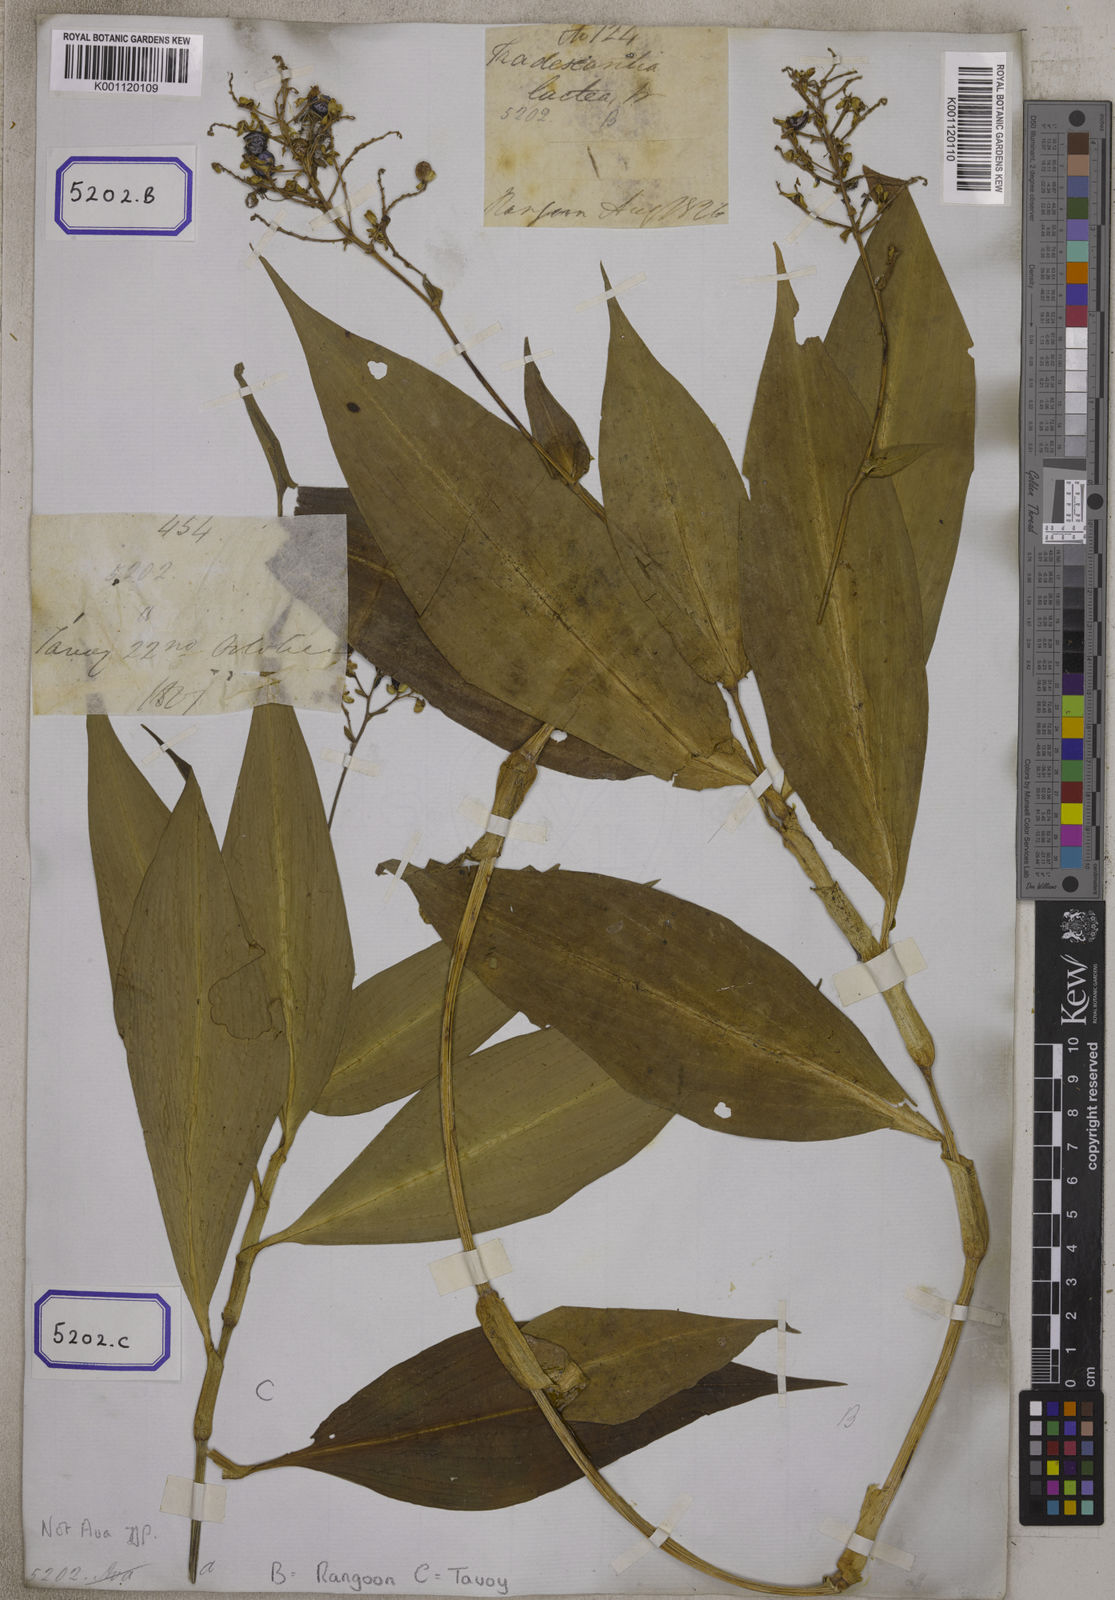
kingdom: Plantae
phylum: Tracheophyta
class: Liliopsida
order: Commelinales
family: Commelinaceae
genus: Aneilema
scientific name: Aneilema
